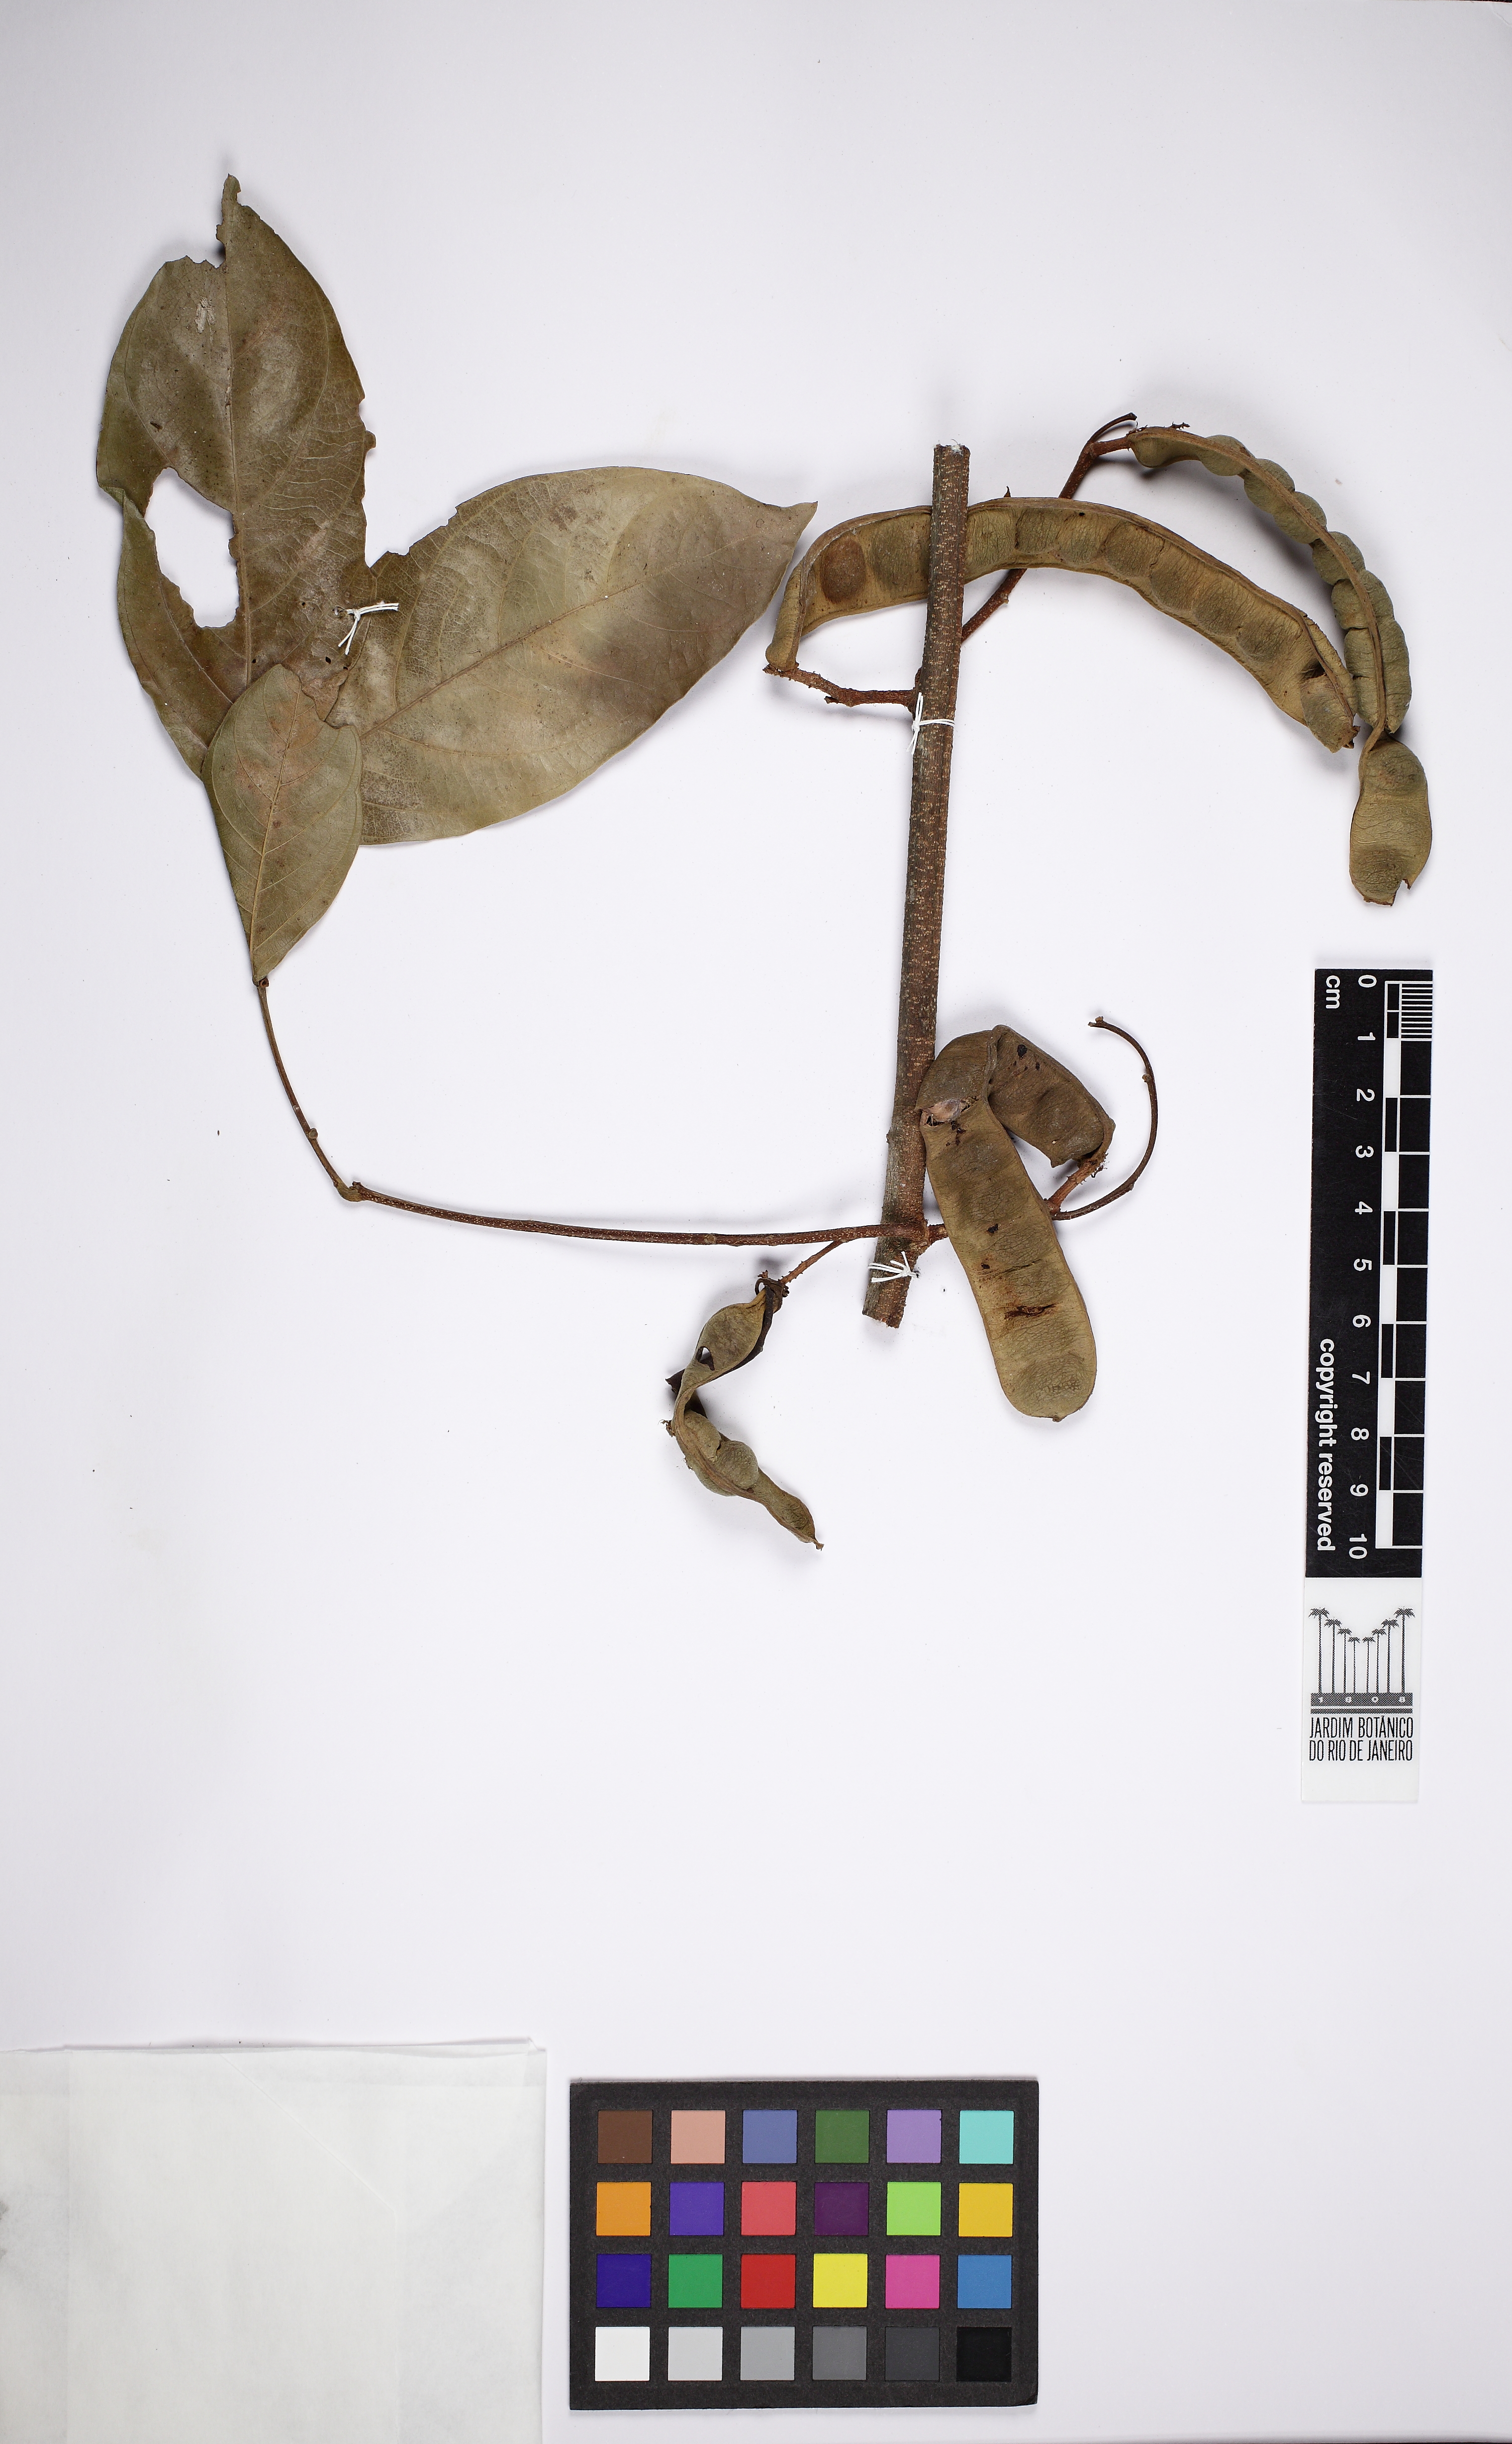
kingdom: Plantae
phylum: Tracheophyta
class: Magnoliopsida
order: Fabales
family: Fabaceae
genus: Inga
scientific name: Inga alba
